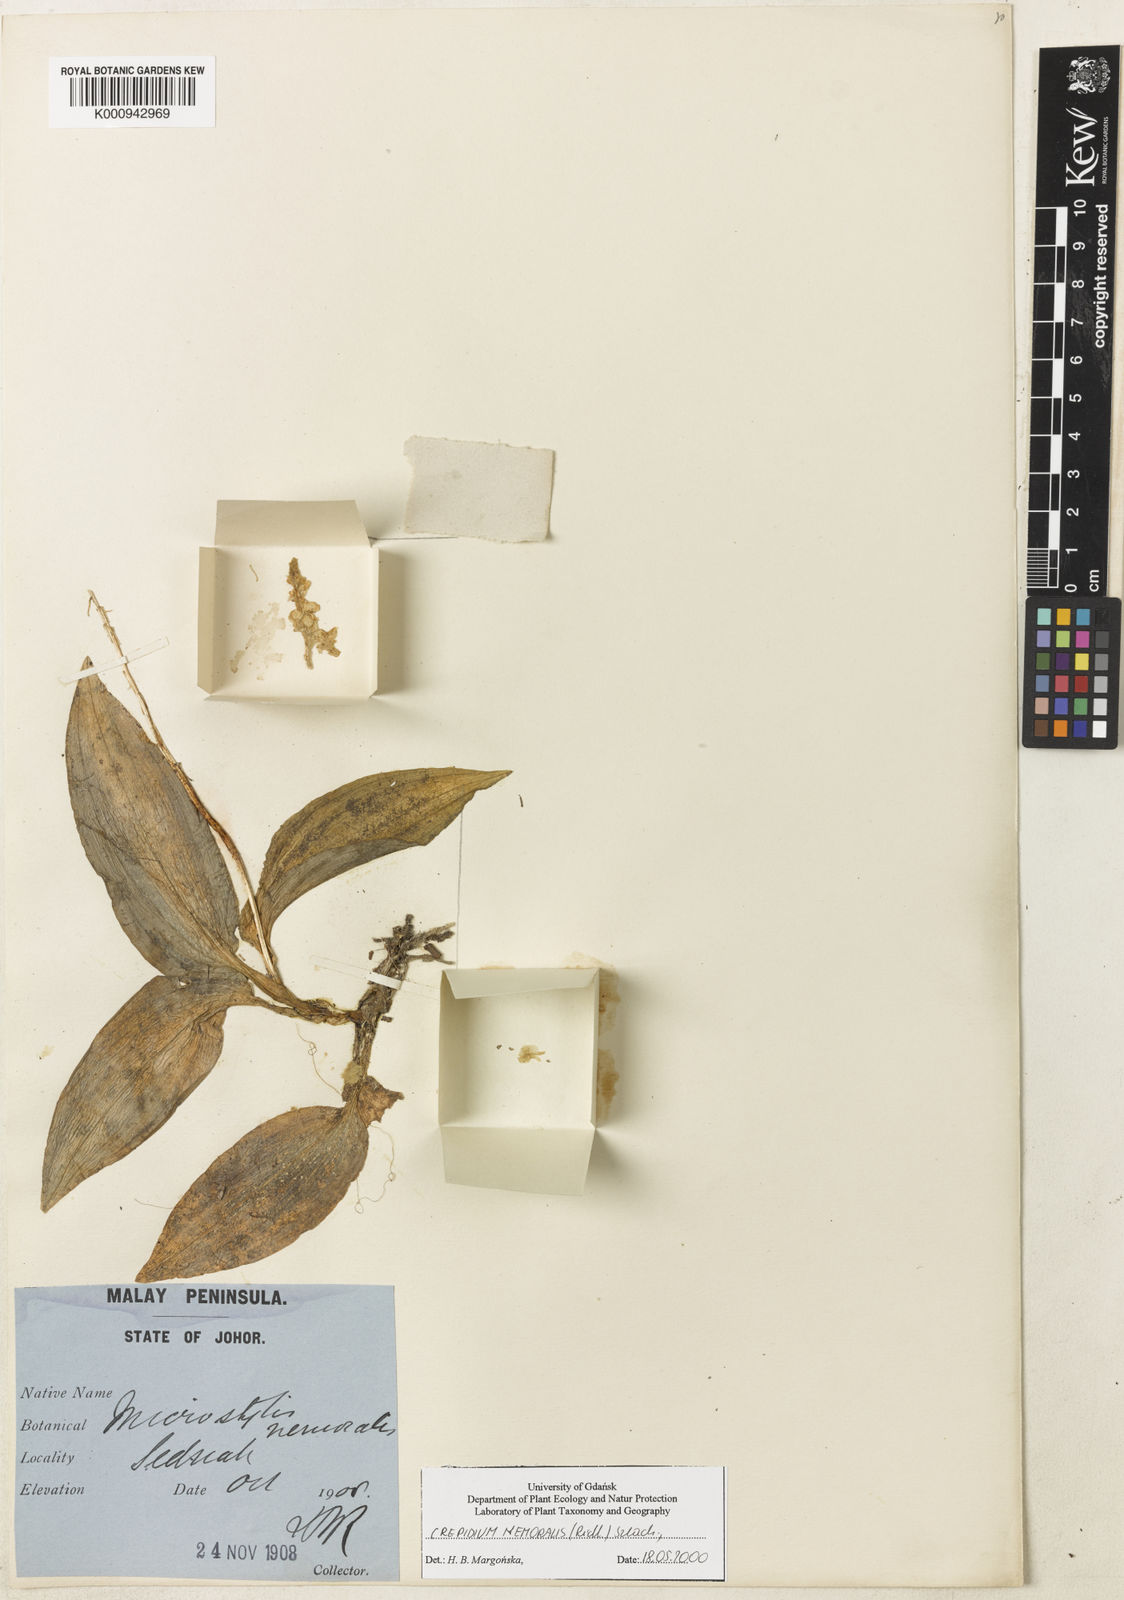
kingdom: Plantae
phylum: Tracheophyta
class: Liliopsida
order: Asparagales
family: Orchidaceae
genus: Crepidium
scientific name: Crepidium nemorale
